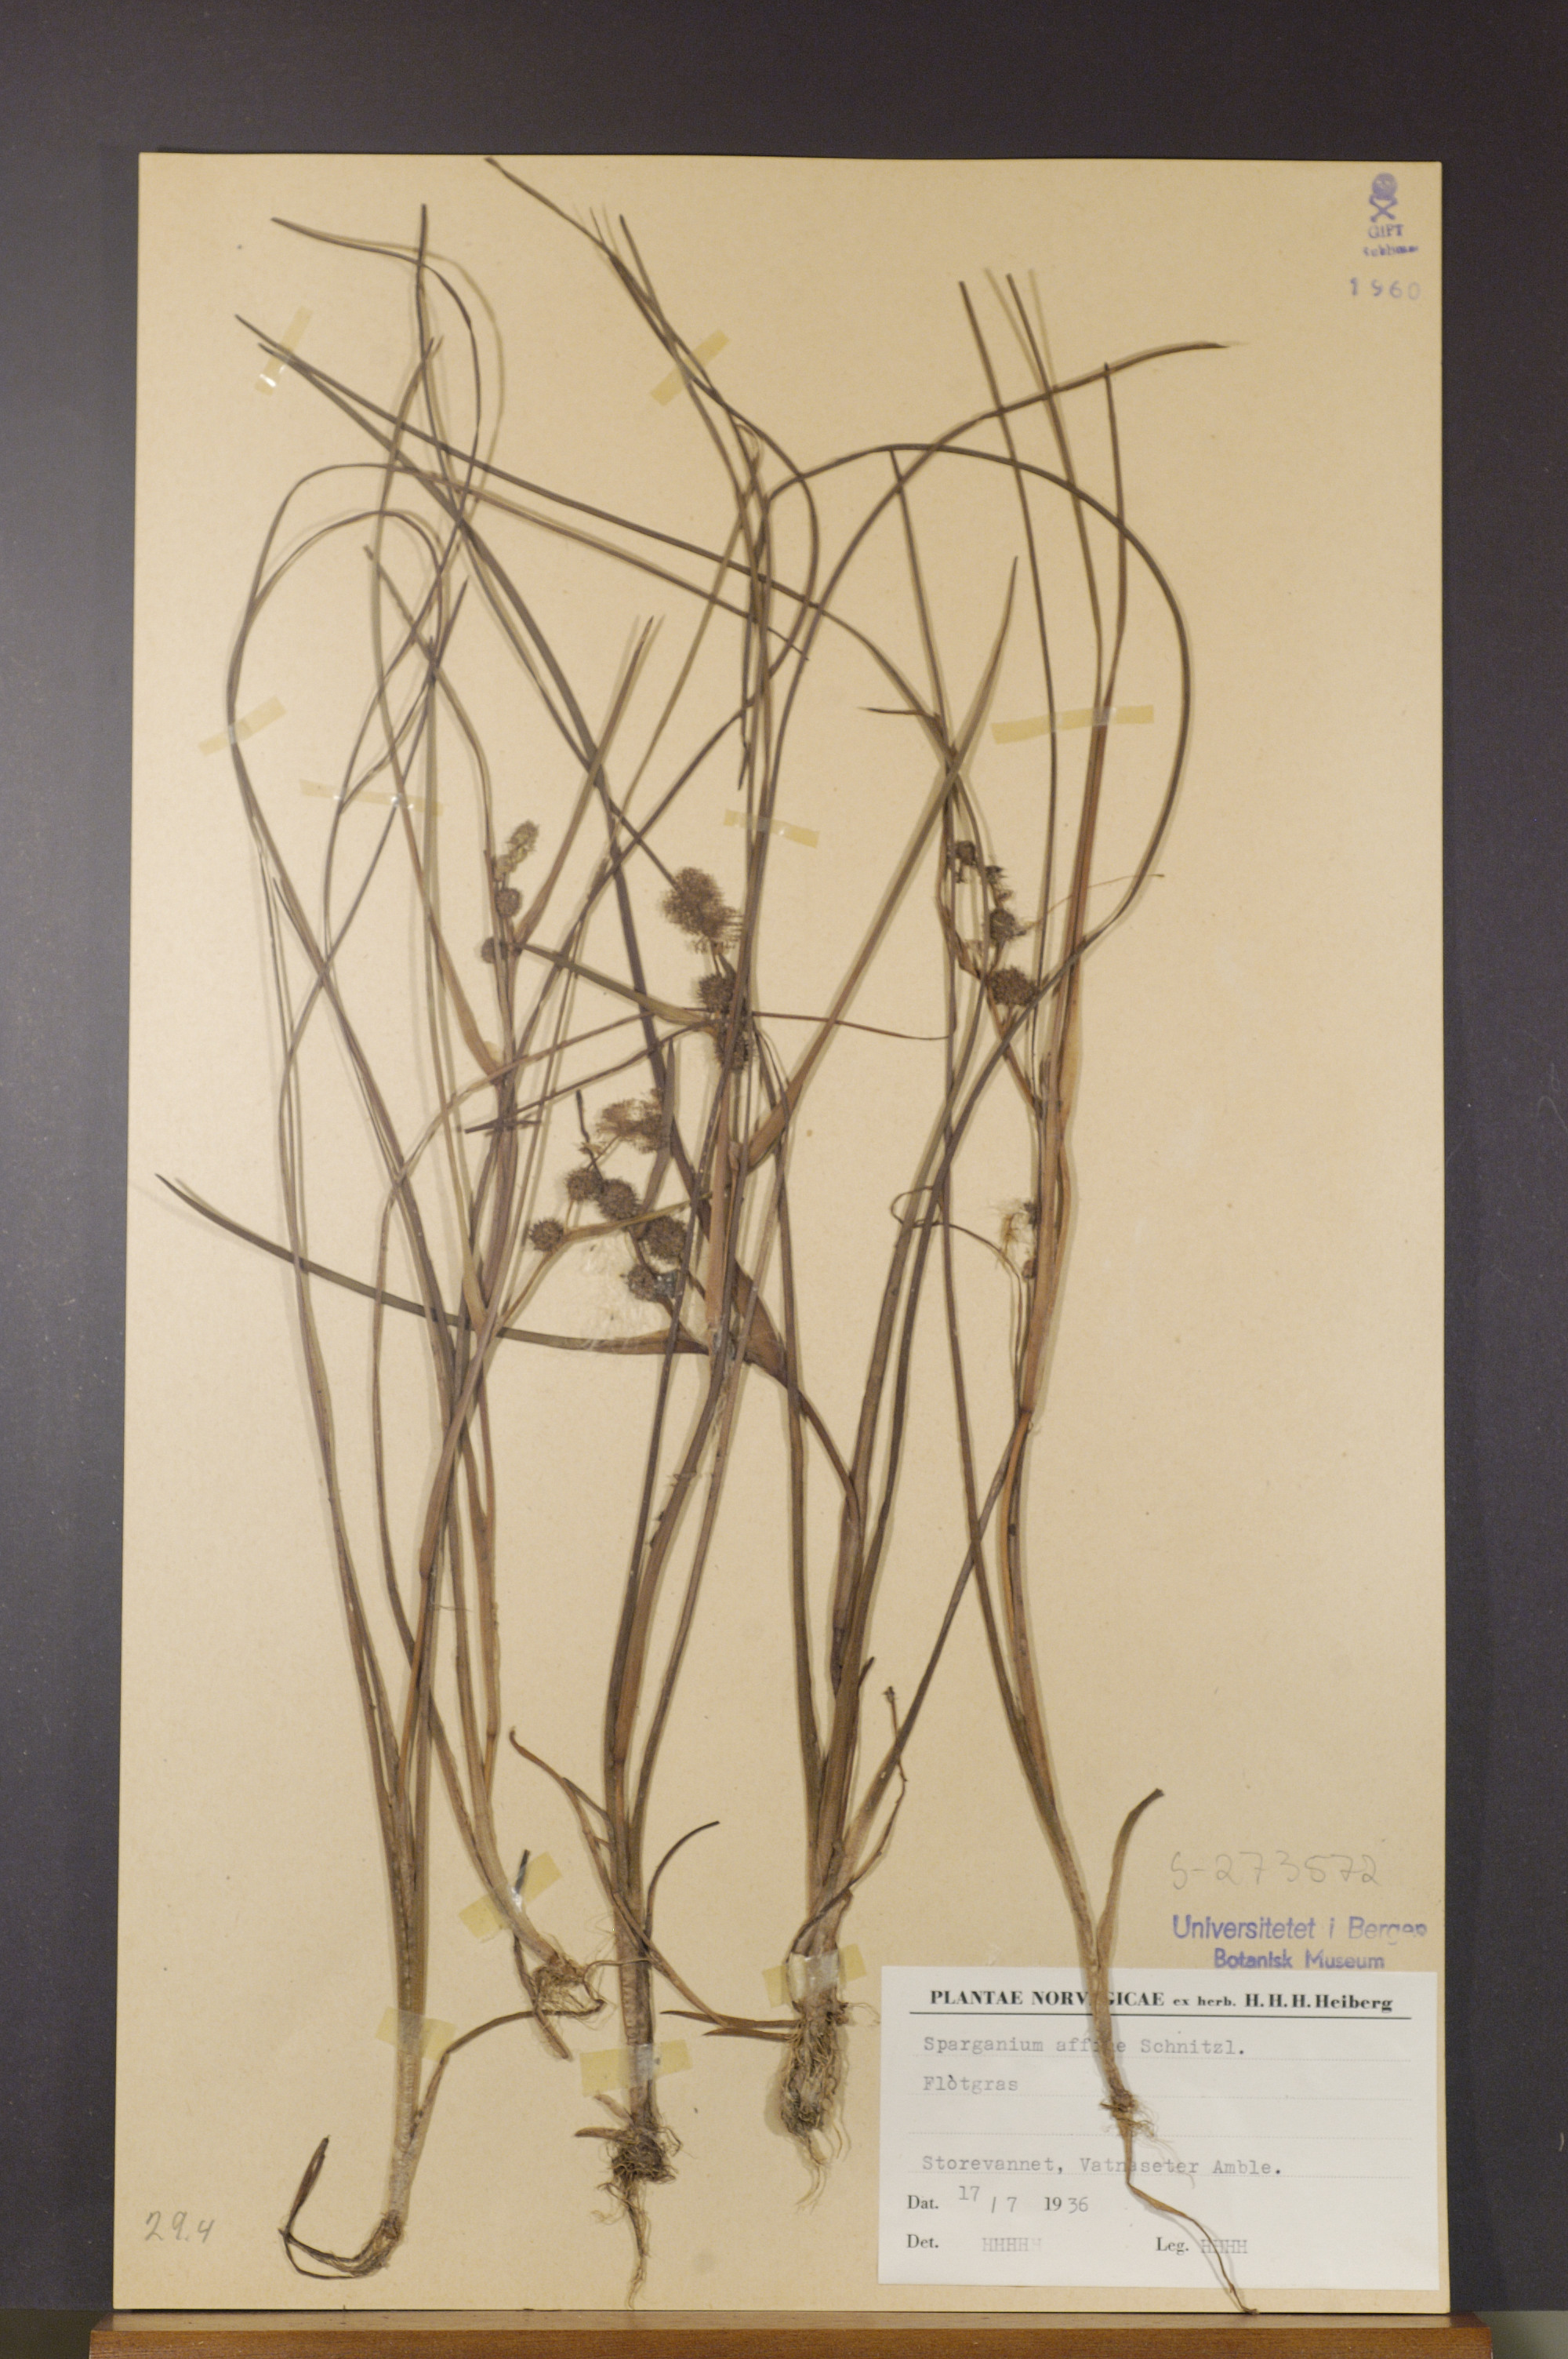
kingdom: Plantae
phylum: Tracheophyta
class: Liliopsida
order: Poales
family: Typhaceae
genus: Sparganium
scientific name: Sparganium angustifolium
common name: Floating bur-reed
